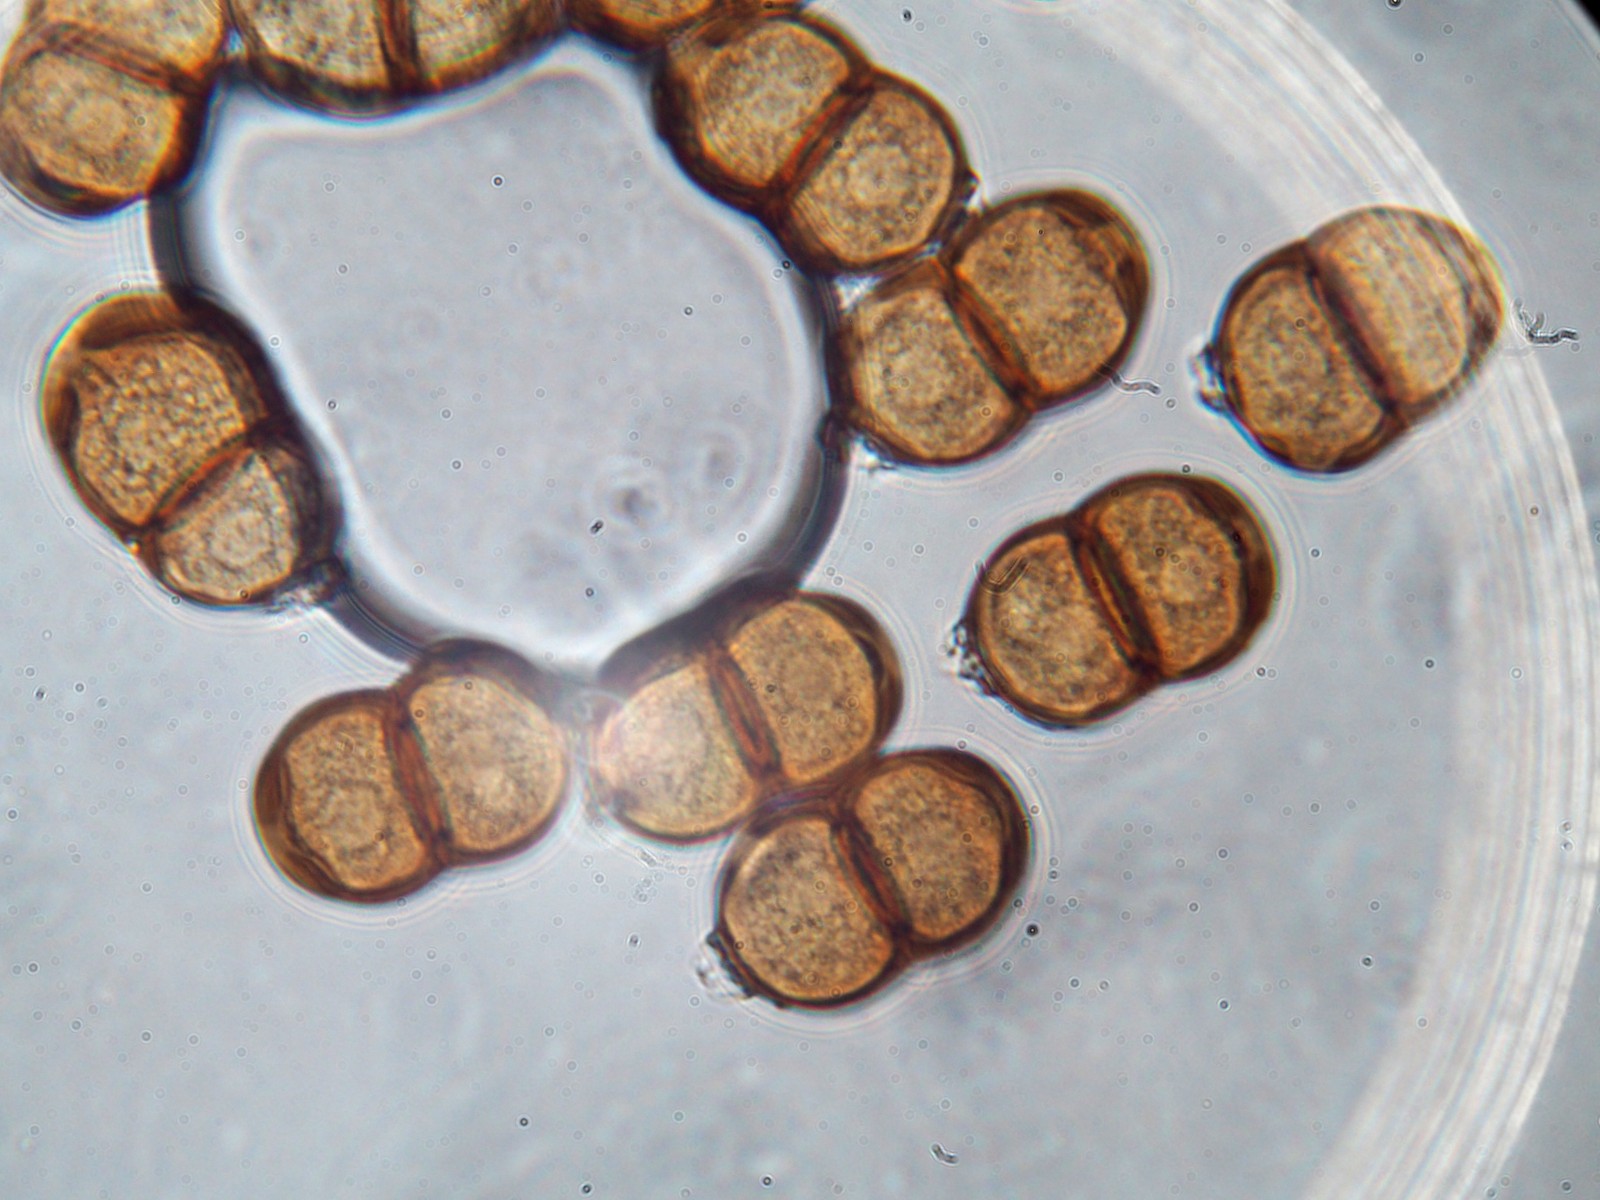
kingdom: Fungi
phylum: Basidiomycota
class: Pucciniomycetes
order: Pucciniales
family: Pucciniaceae
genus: Puccinia
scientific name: Puccinia pulverulenta
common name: dueurt-tvecellerust
